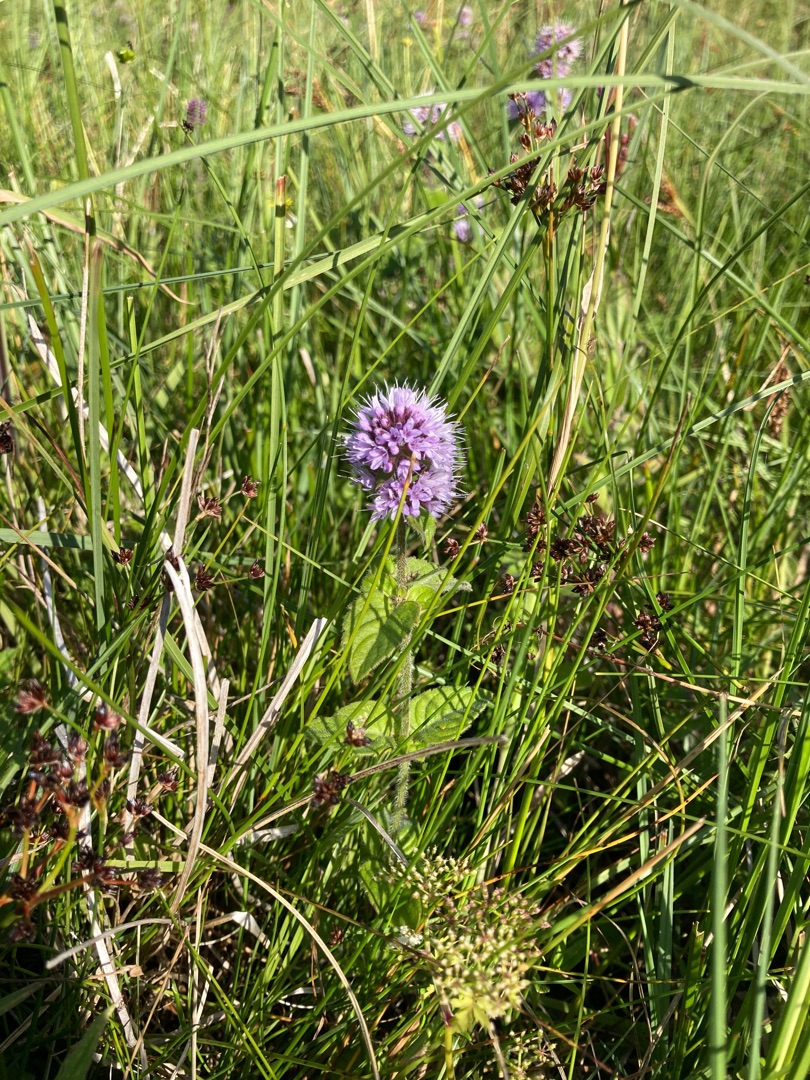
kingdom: Plantae
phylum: Tracheophyta
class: Magnoliopsida
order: Lamiales
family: Lamiaceae
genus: Mentha
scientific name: Mentha aquatica
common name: Vand-mynte
